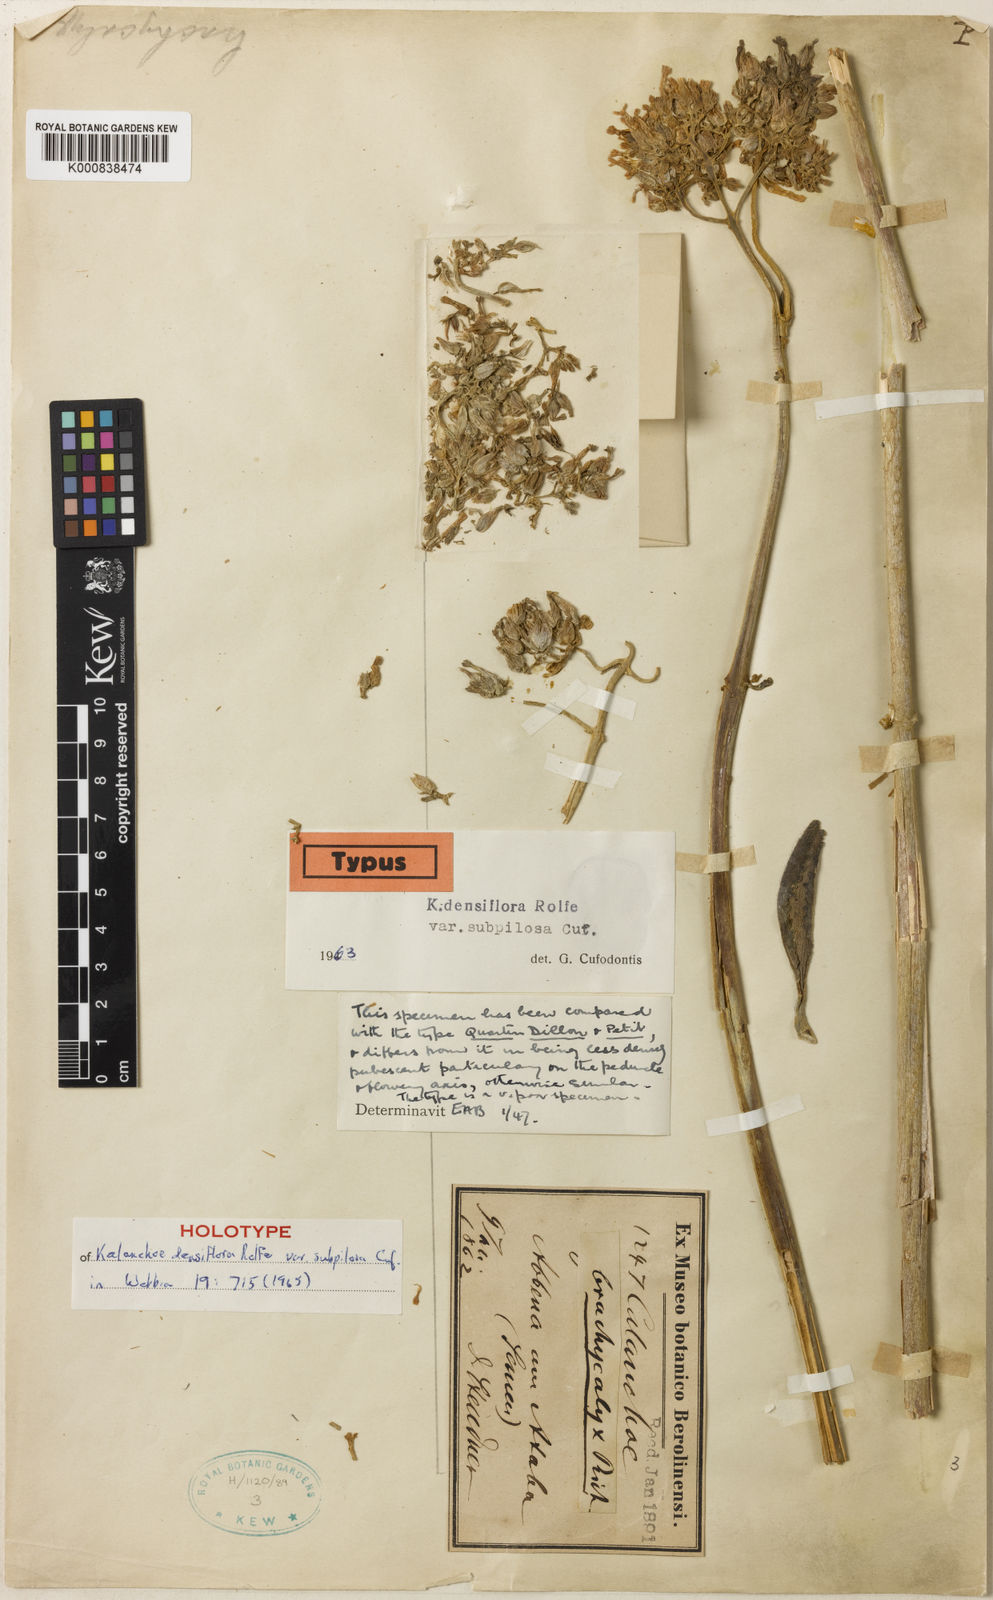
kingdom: Plantae
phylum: Tracheophyta
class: Magnoliopsida
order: Saxifragales
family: Crassulaceae
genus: Kalanchoe
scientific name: Kalanchoe densiflora
